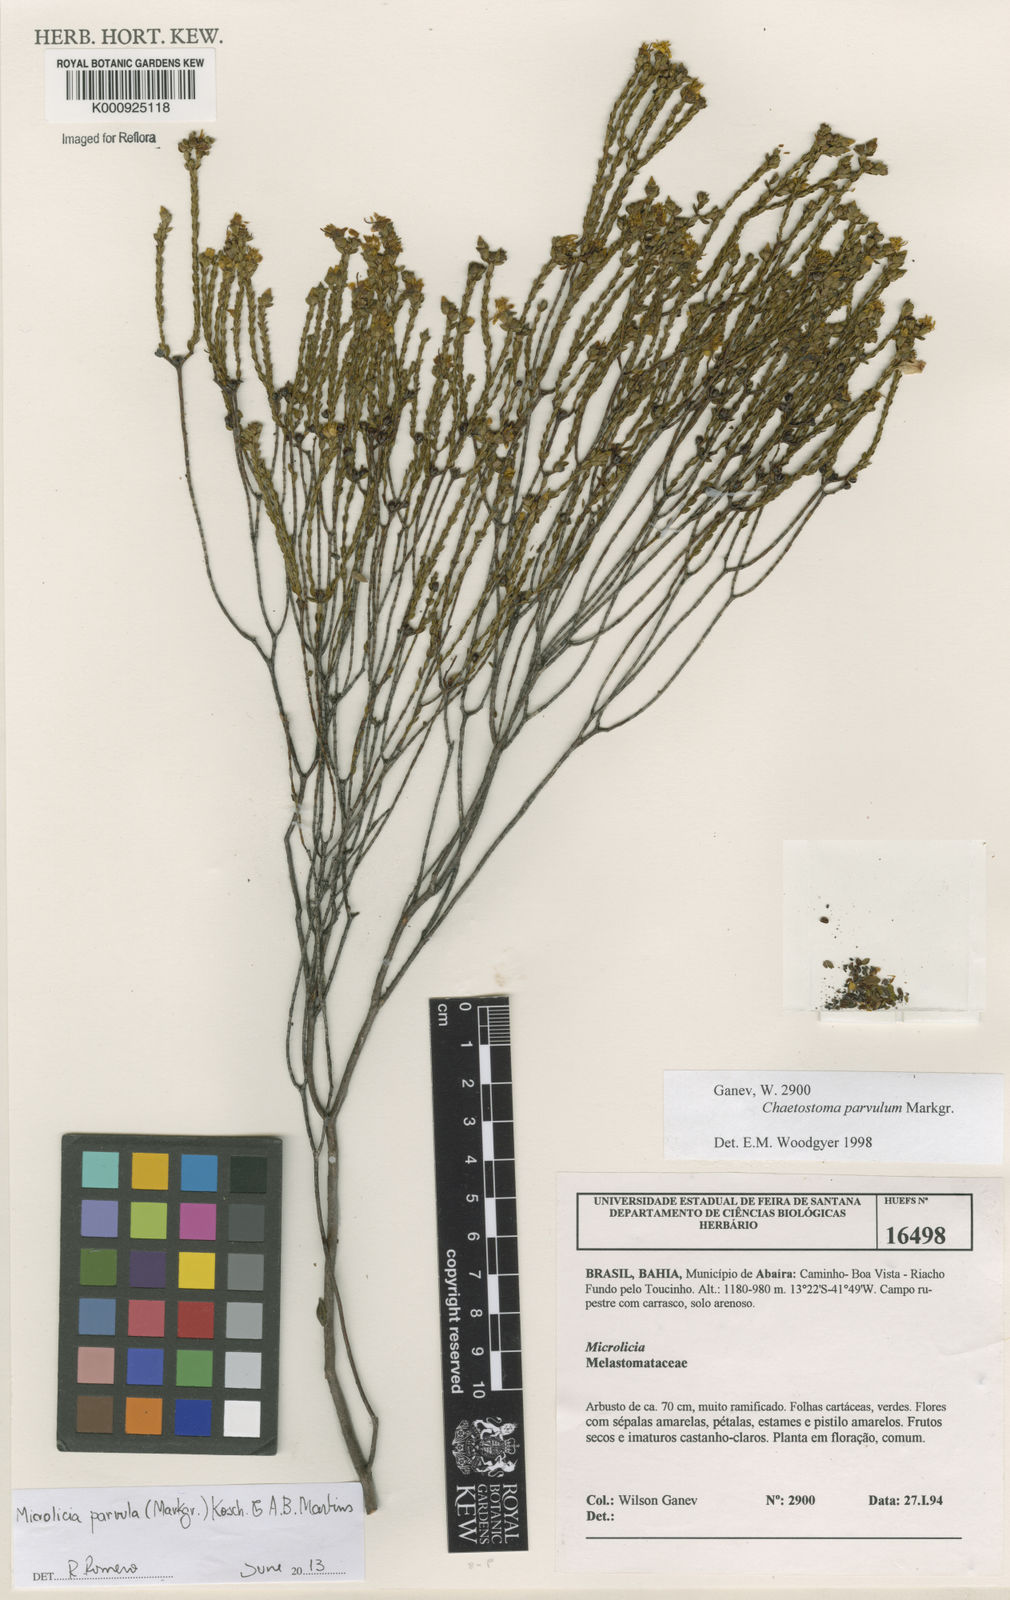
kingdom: Plantae
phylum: Tracheophyta
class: Magnoliopsida
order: Myrtales
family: Melastomataceae
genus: Microlicia
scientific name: Microlicia parvula
